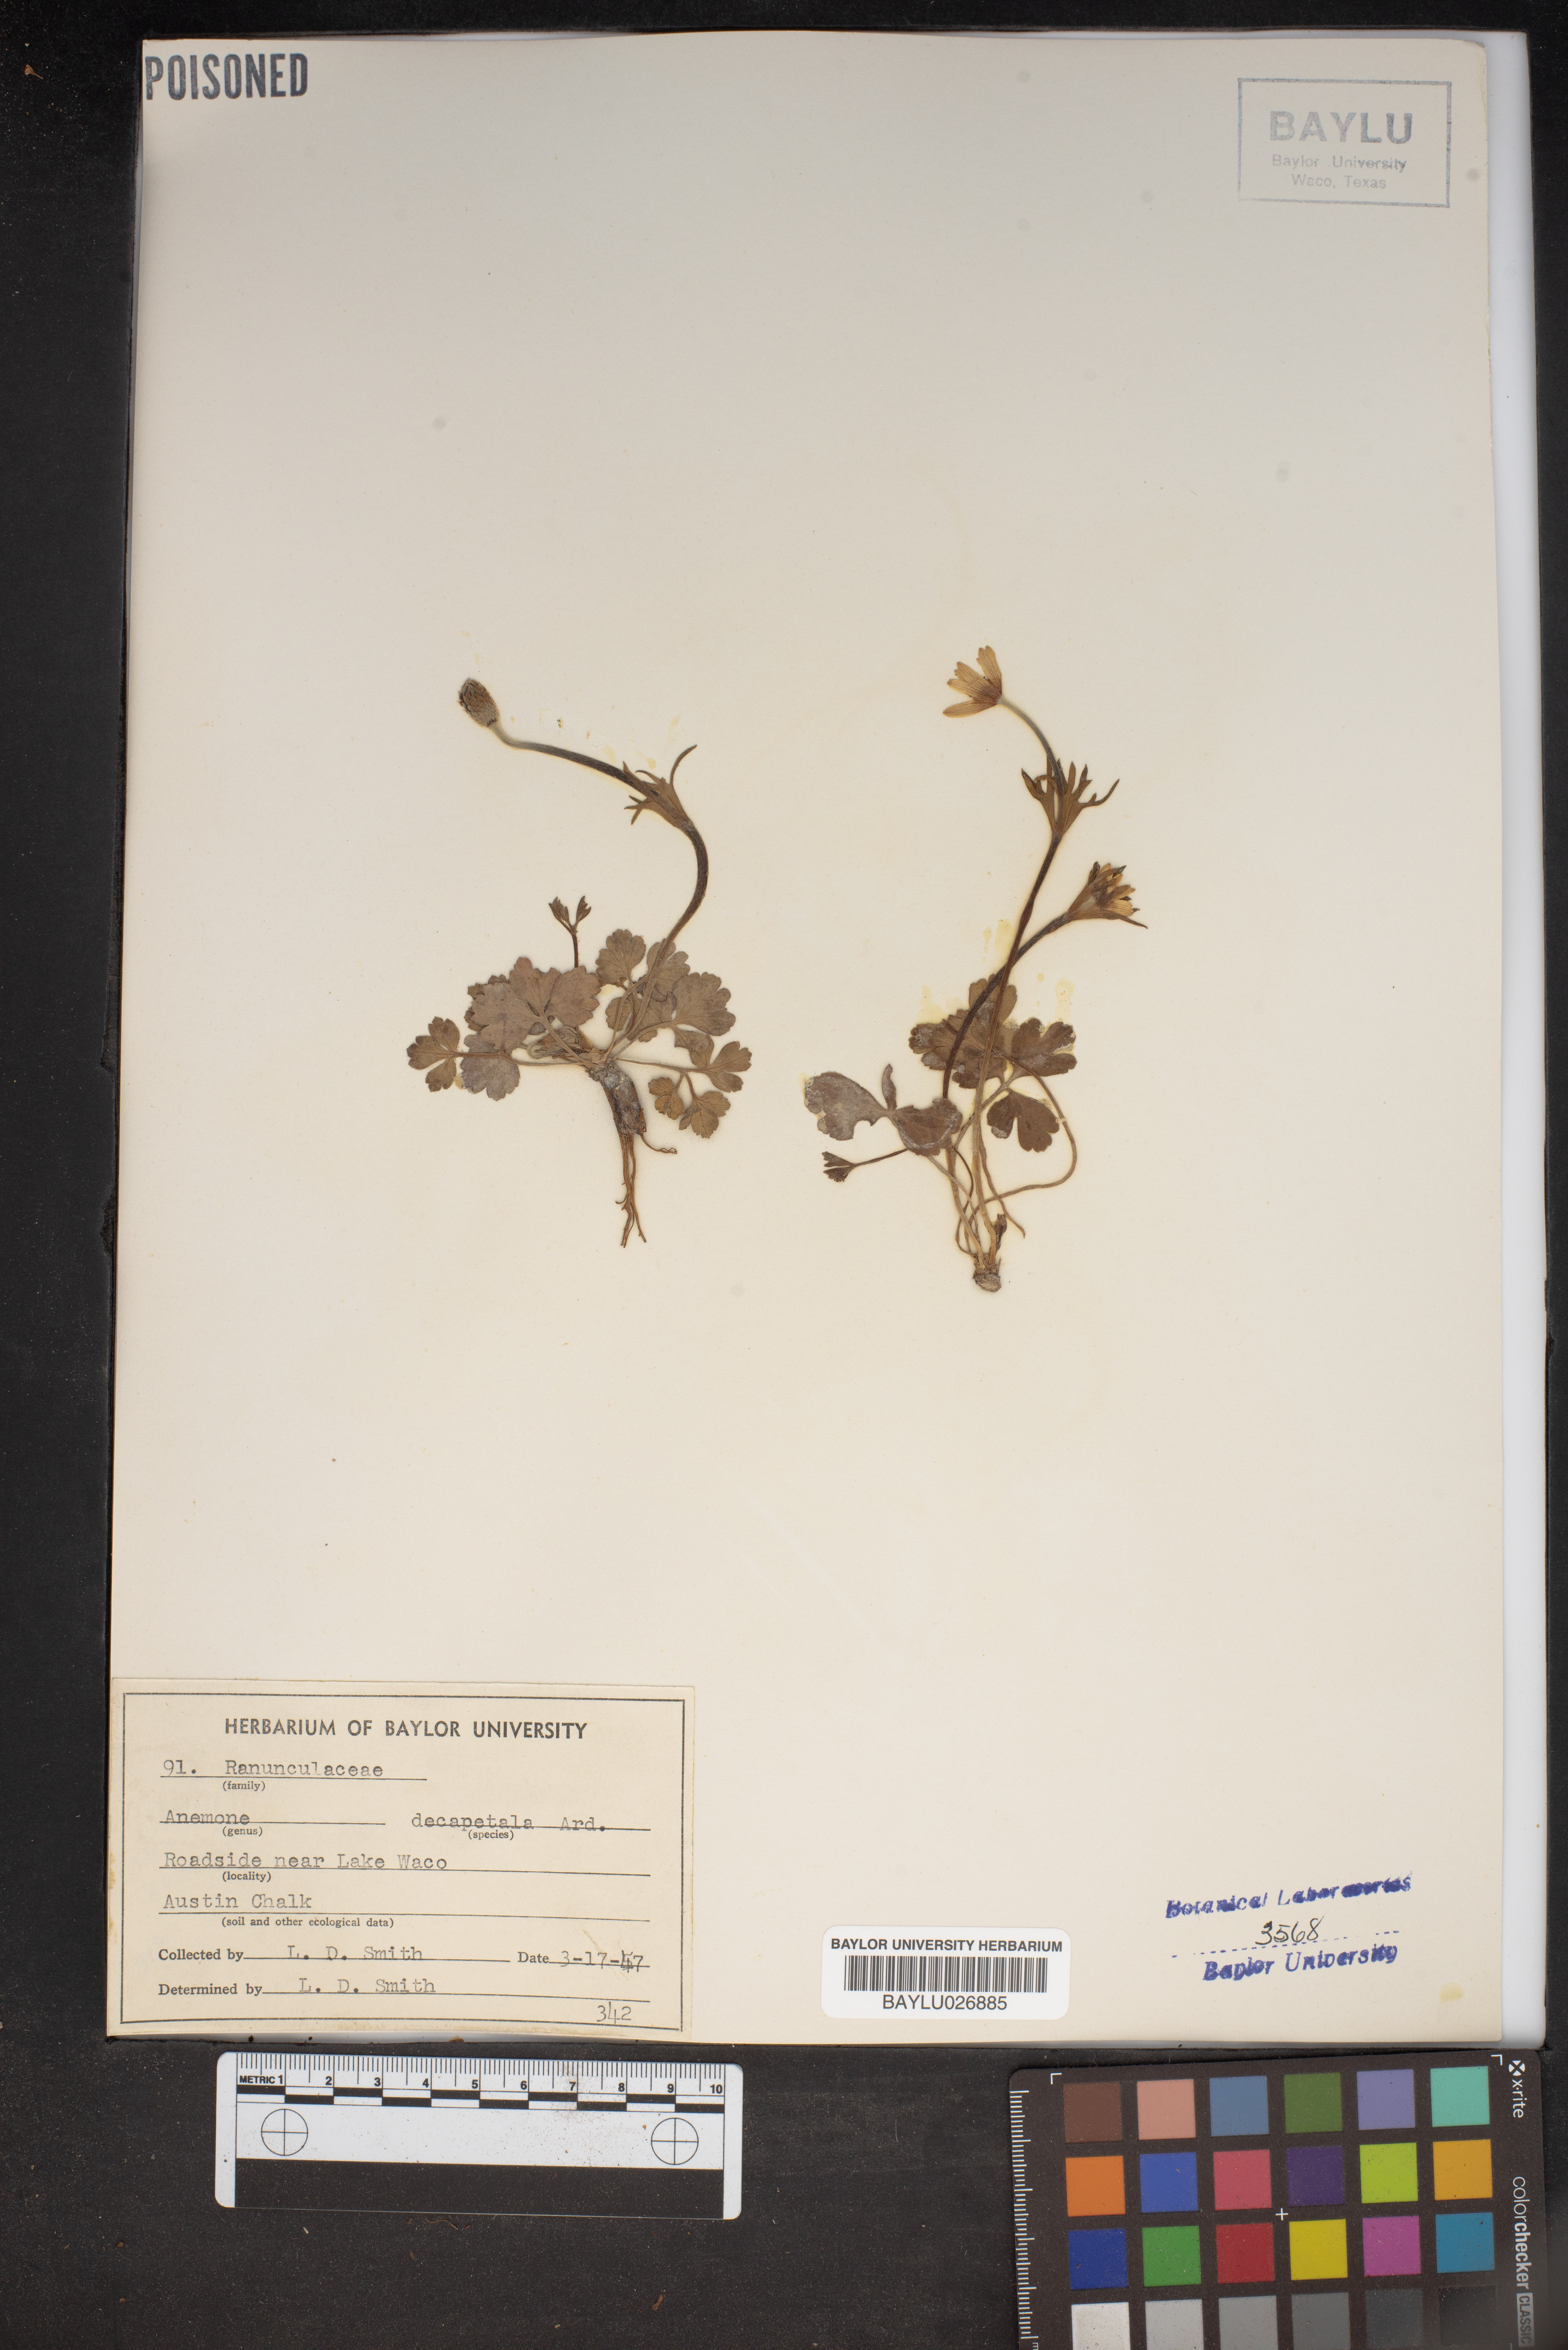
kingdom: Plantae
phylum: Tracheophyta
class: Magnoliopsida
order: Ranunculales
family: Ranunculaceae
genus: Anemone
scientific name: Anemone decapetala
